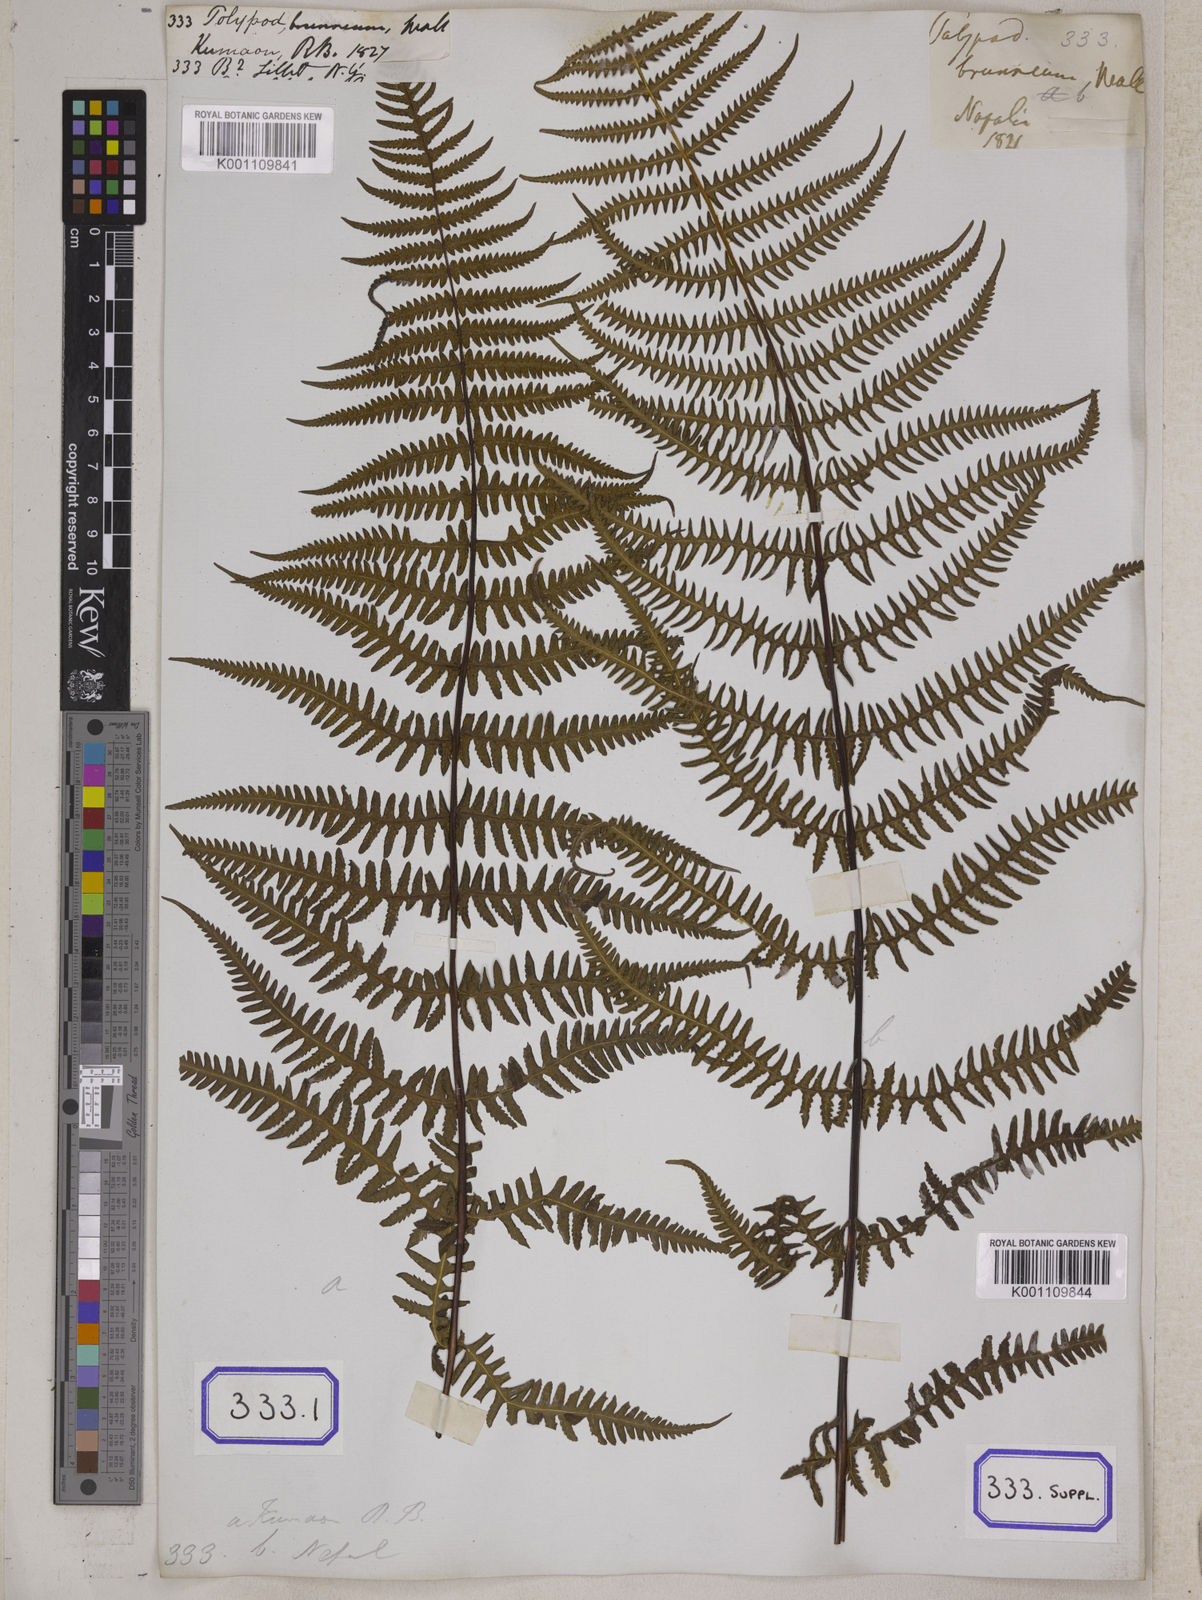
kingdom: Plantae
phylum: Tracheophyta
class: Polypodiopsida
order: Polypodiales
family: Thelypteridaceae
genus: Pseudophegopteris
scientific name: Pseudophegopteris paludosa
